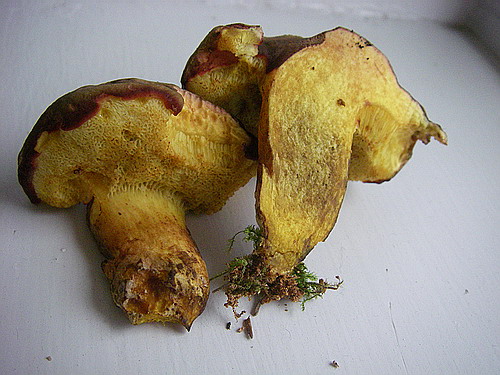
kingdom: Fungi
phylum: Basidiomycota
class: Agaricomycetes
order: Boletales
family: Boletaceae
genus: Xerocomellus
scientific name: Xerocomellus pruinatus
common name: dugget rørhat
